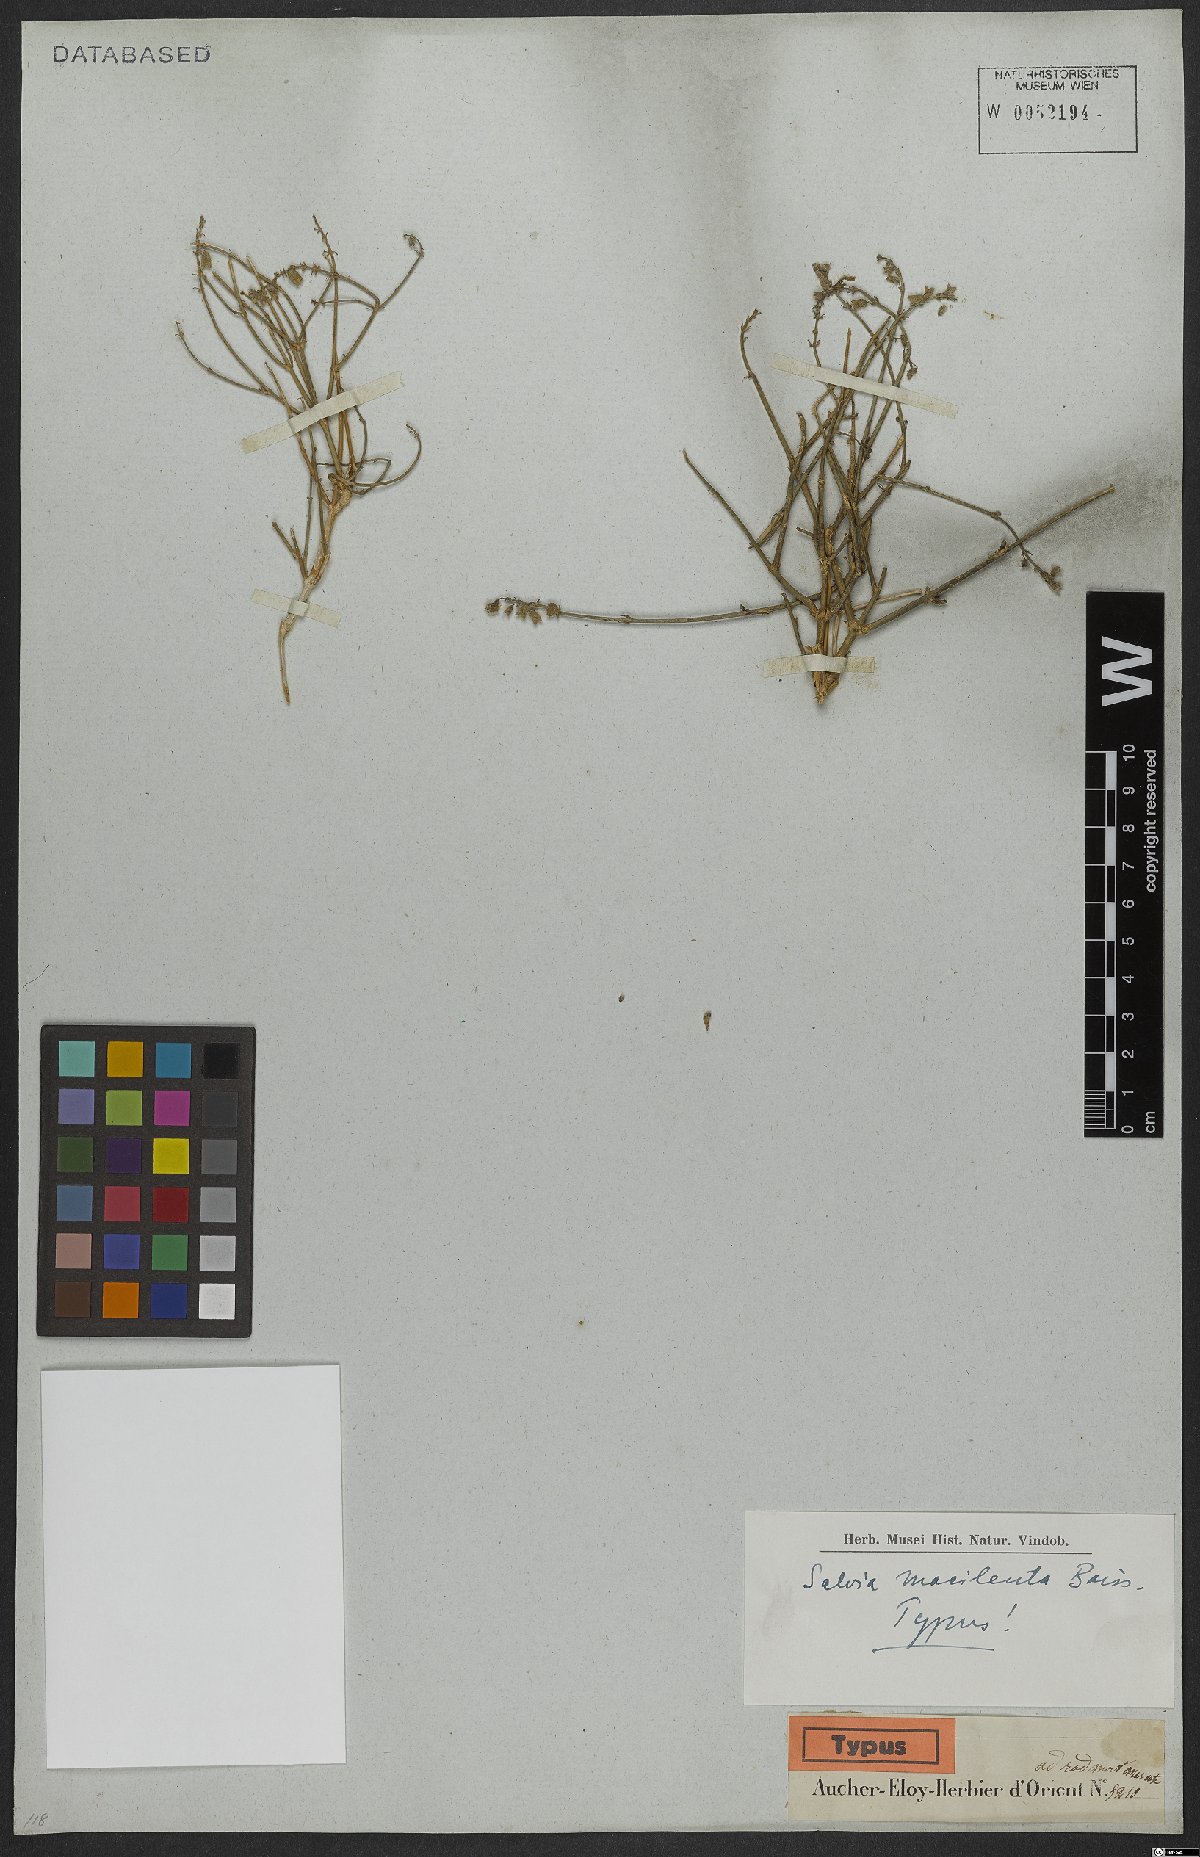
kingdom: Plantae
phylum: Tracheophyta
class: Magnoliopsida
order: Lamiales
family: Lamiaceae
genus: Salvia
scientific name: Salvia macilenta
